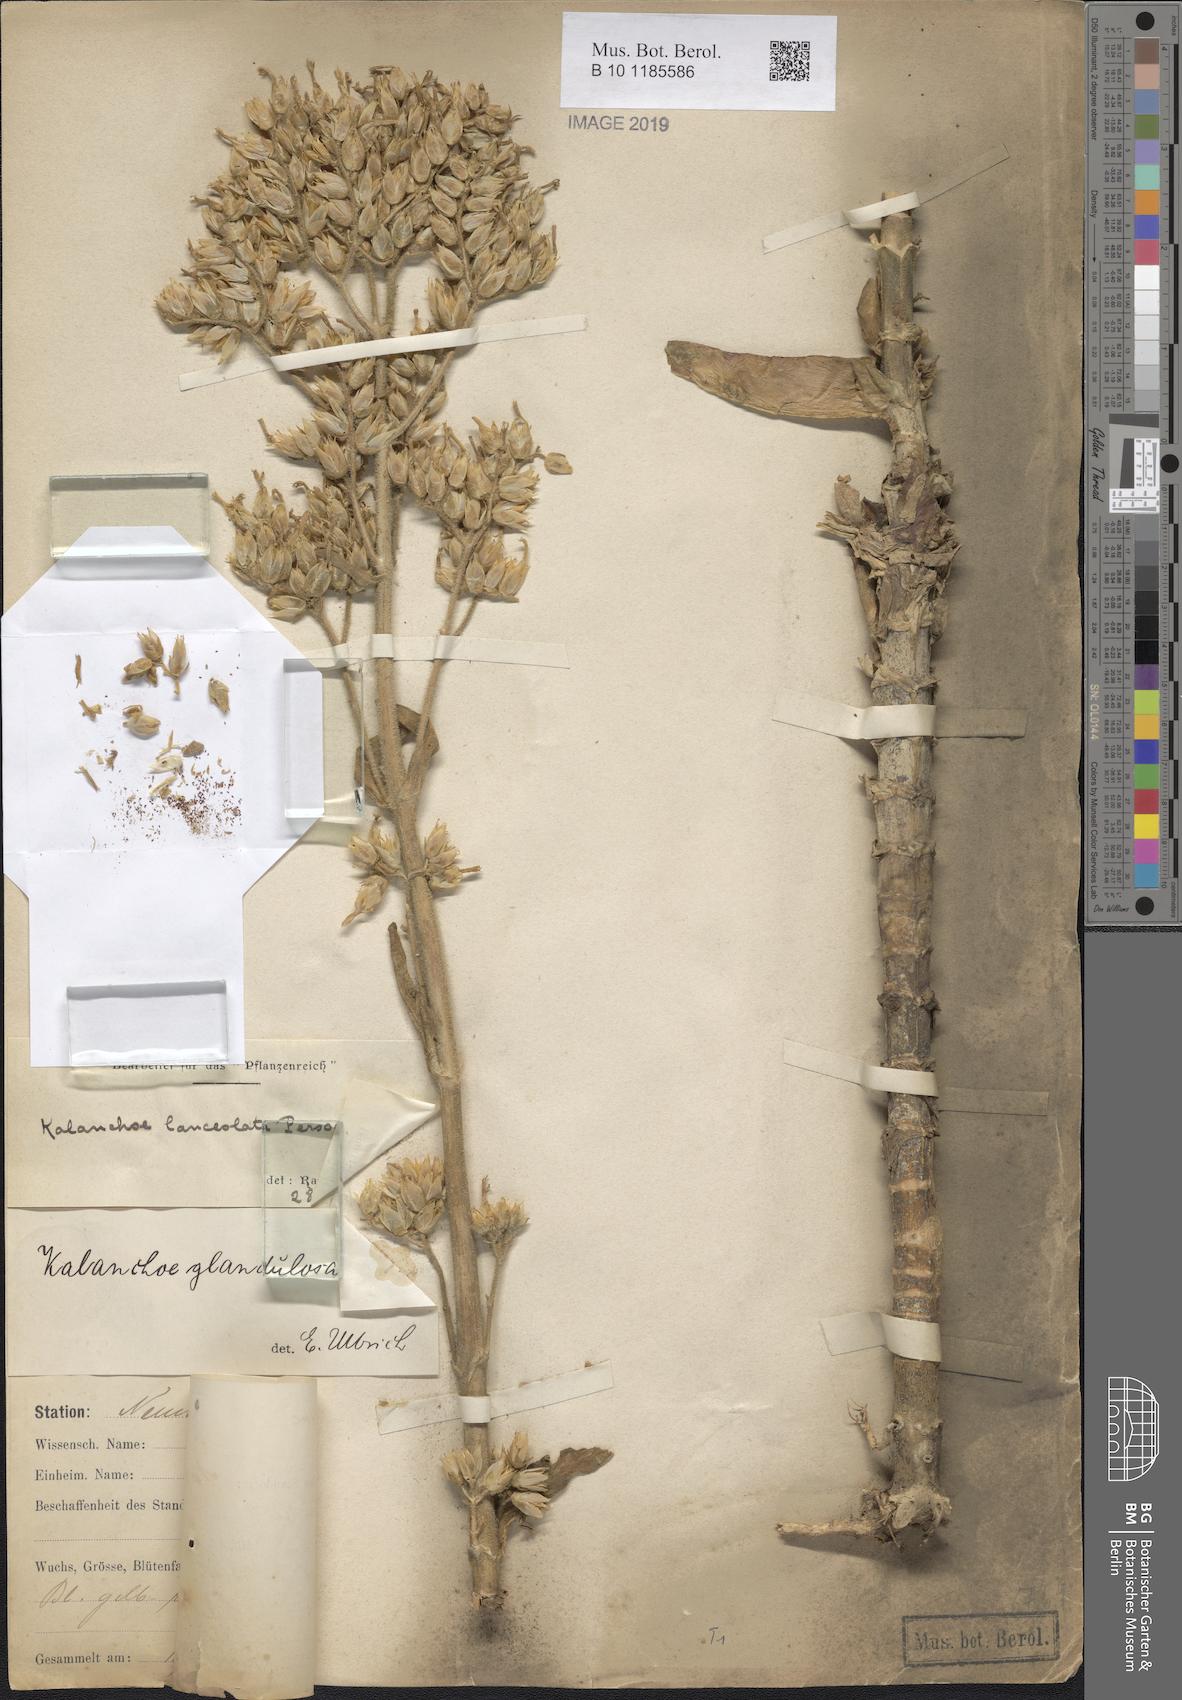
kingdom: Plantae
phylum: Tracheophyta
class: Magnoliopsida
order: Saxifragales
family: Crassulaceae
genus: Kalanchoe
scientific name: Kalanchoe lanceolata
